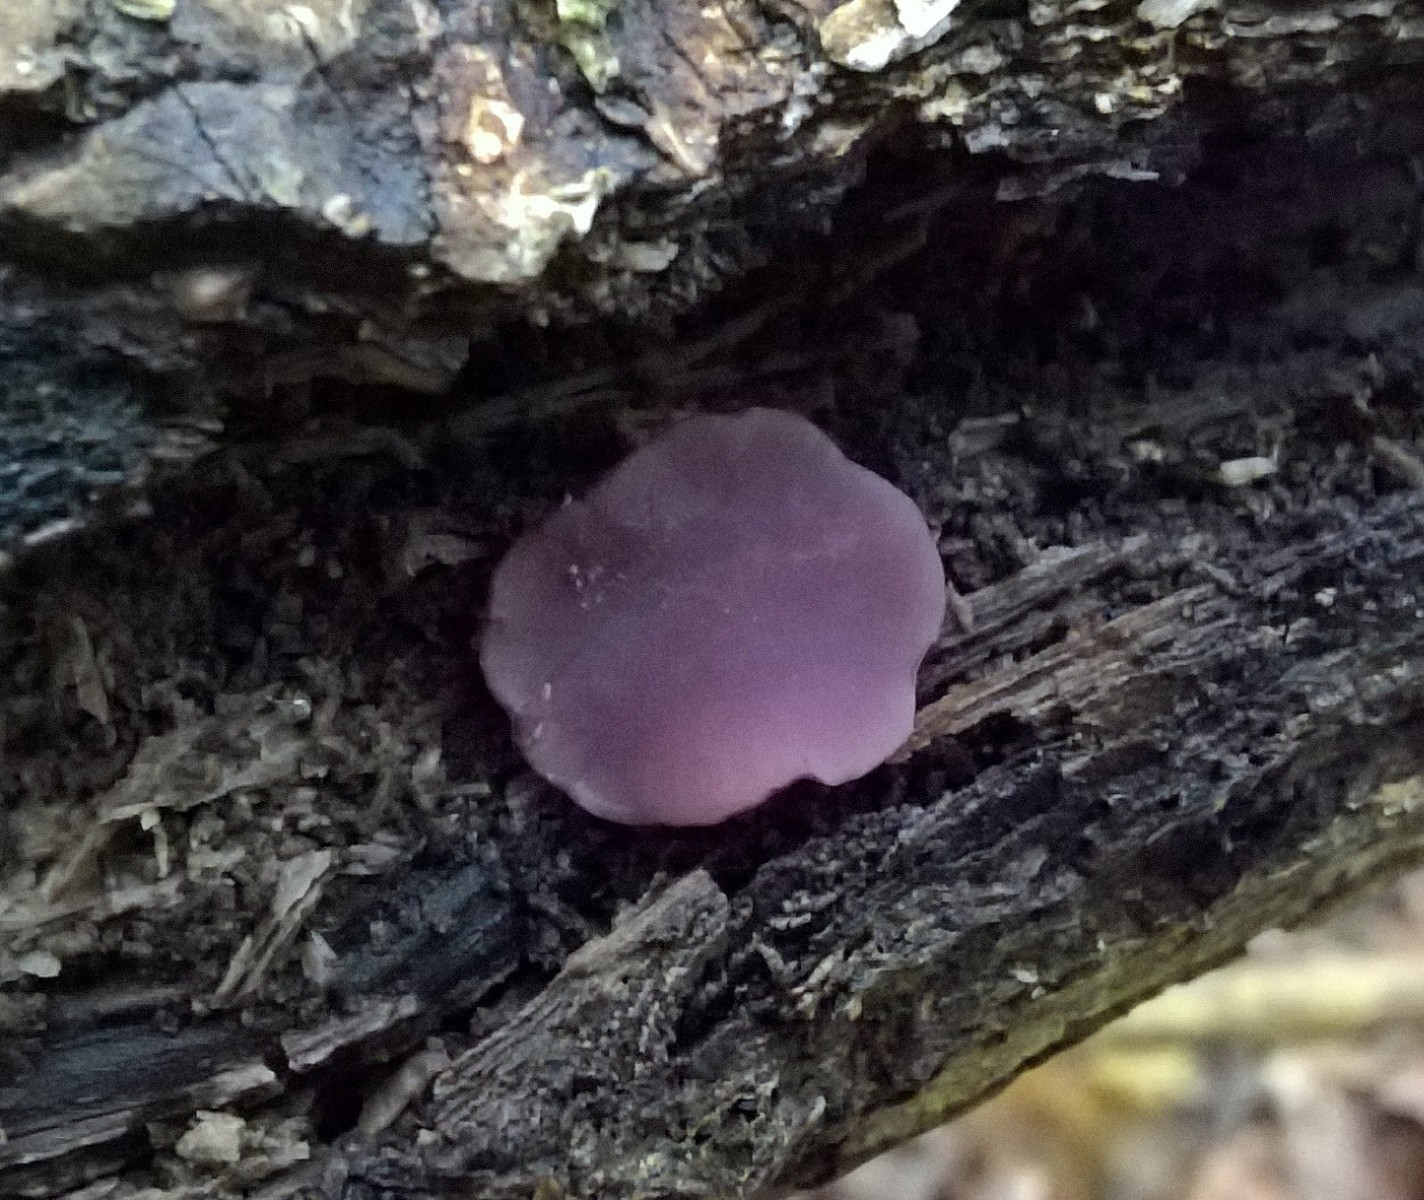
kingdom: Fungi
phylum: Ascomycota
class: Leotiomycetes
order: Helotiales
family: Gelatinodiscaceae
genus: Ascocoryne
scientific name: Ascocoryne cylichnium
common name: stor sejskive
